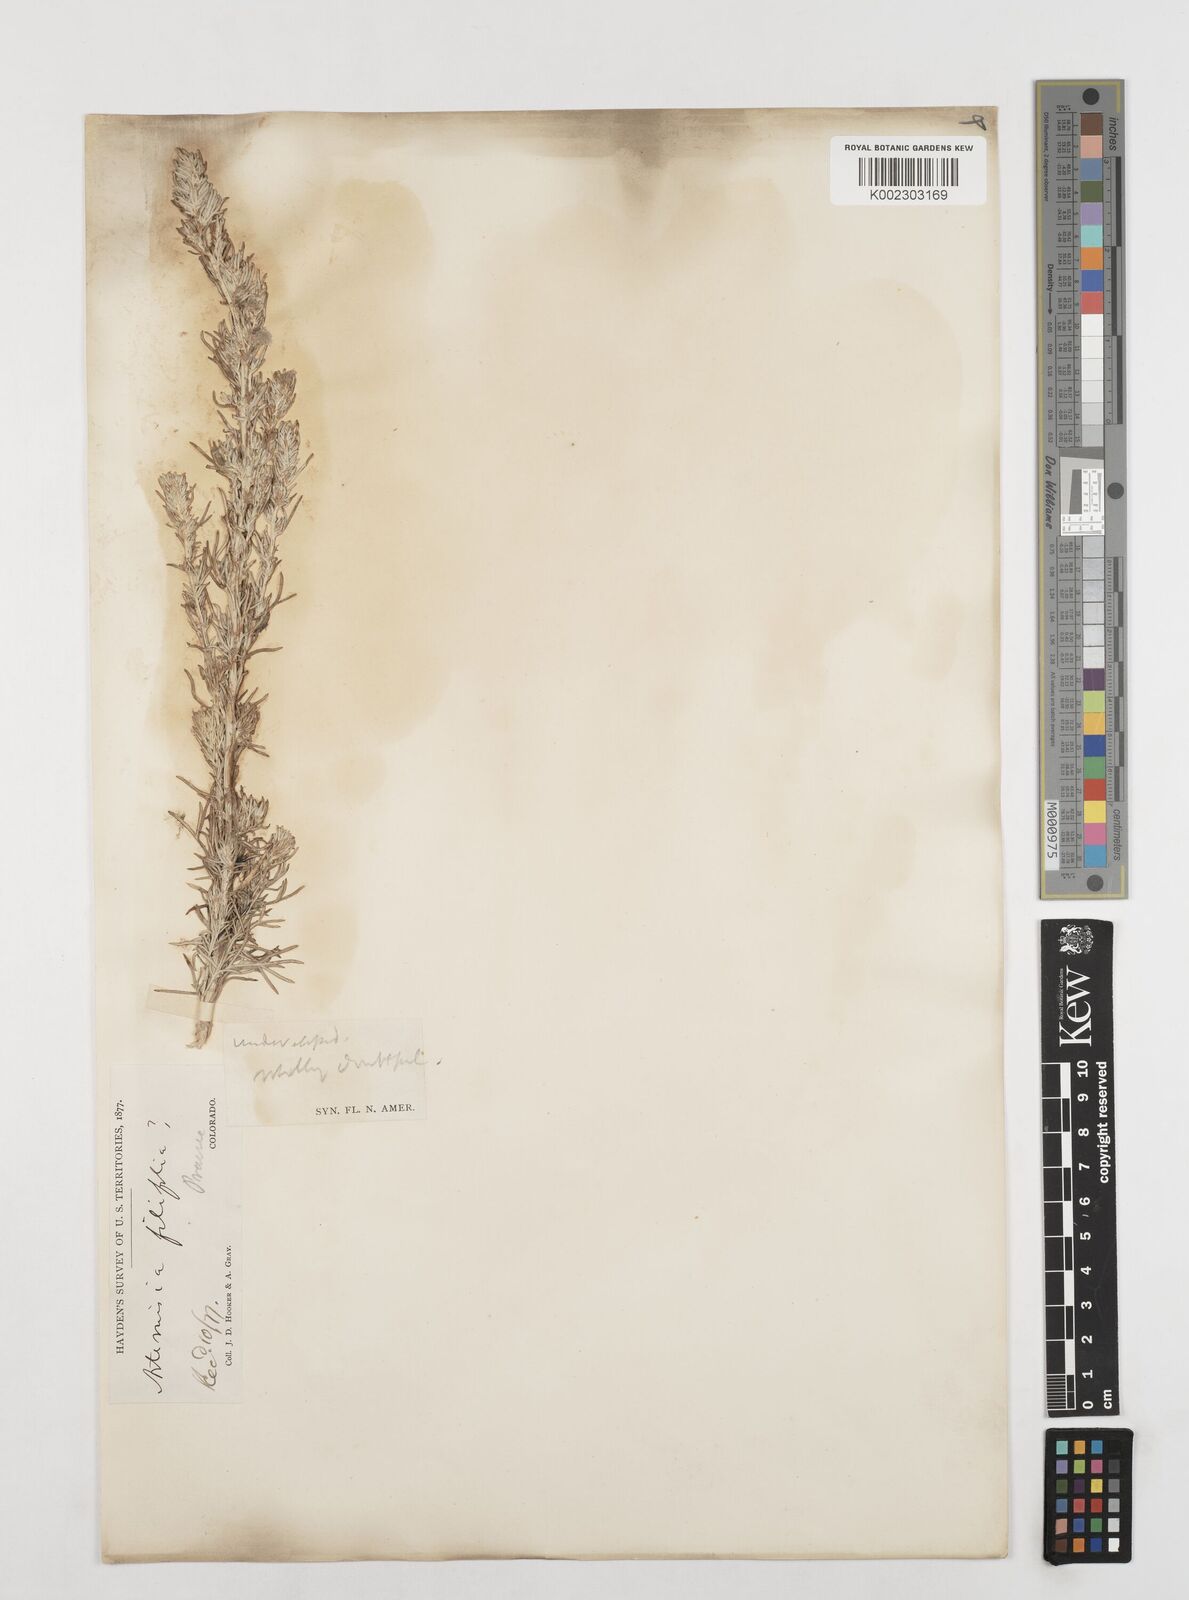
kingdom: Plantae
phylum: Tracheophyta
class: Magnoliopsida
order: Asterales
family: Asteraceae
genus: Artemisia
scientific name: Artemisia filifolia
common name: Sand-sage
